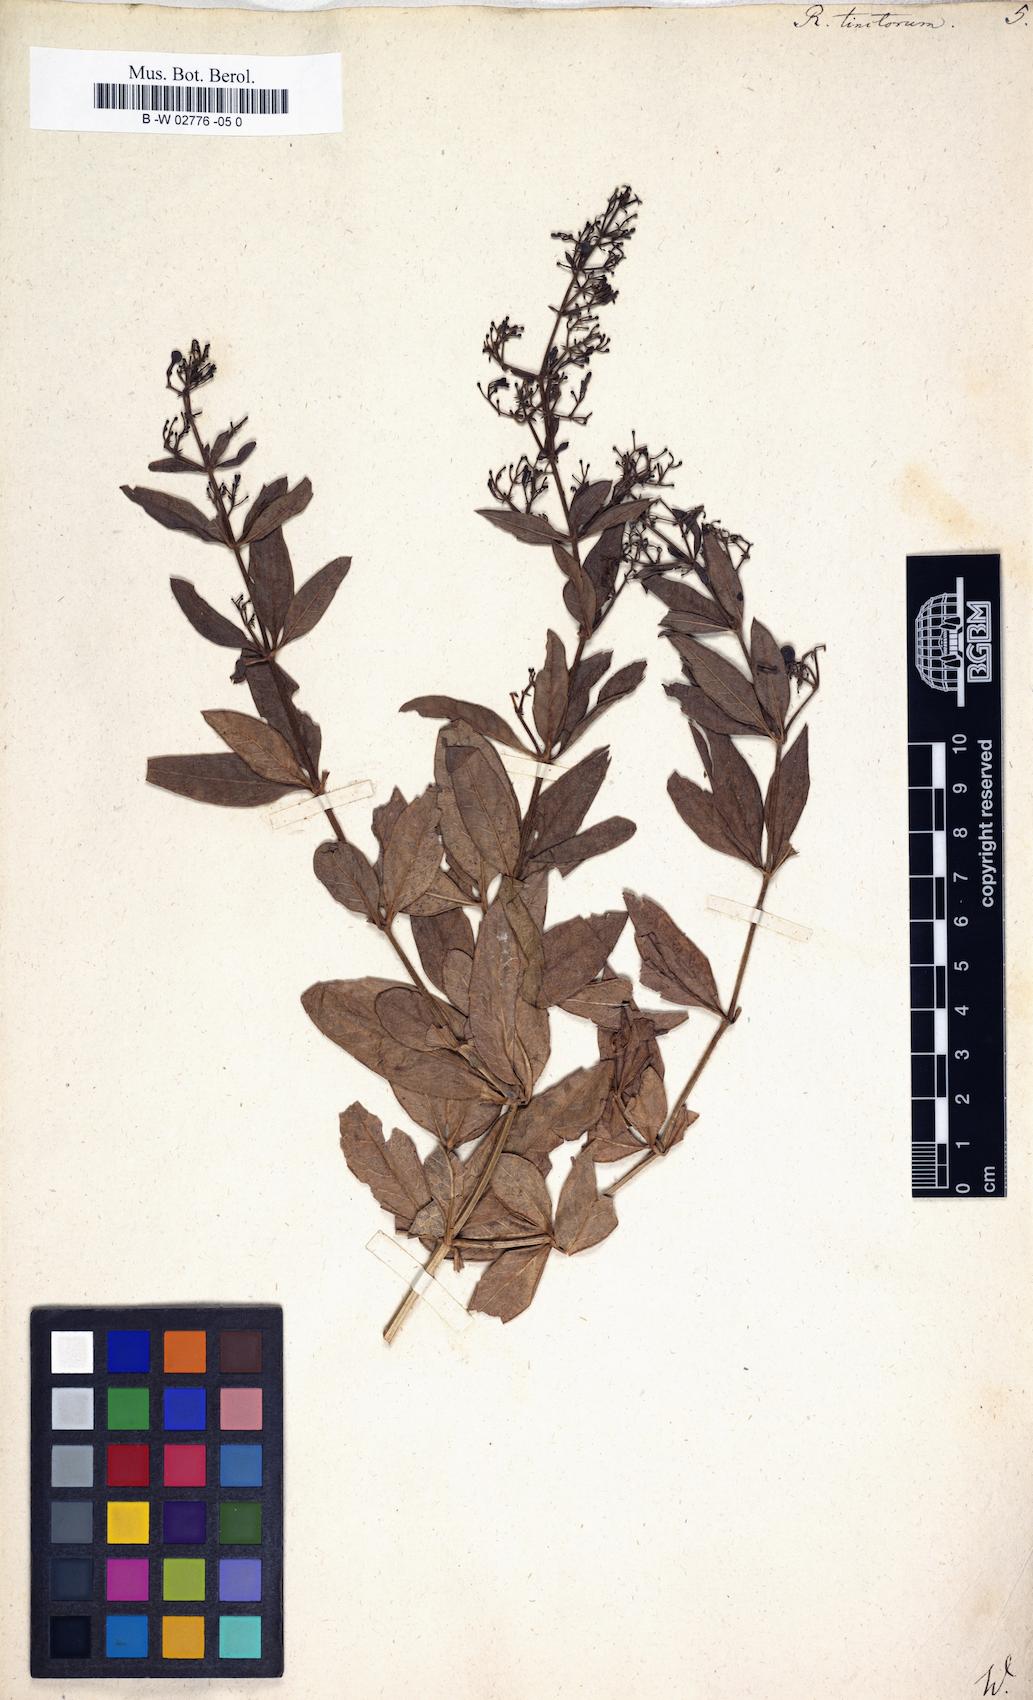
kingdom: Plantae
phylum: Tracheophyta
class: Magnoliopsida
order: Gentianales
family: Rubiaceae
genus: Rubia
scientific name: Rubia tinctorum
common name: Dyer's madder
